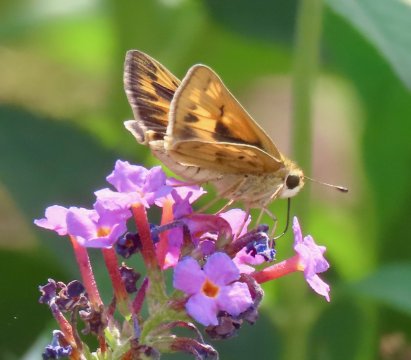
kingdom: Animalia
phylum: Arthropoda
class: Insecta
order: Lepidoptera
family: Hesperiidae
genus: Hylephila
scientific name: Hylephila phyleus
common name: Fiery Skipper
